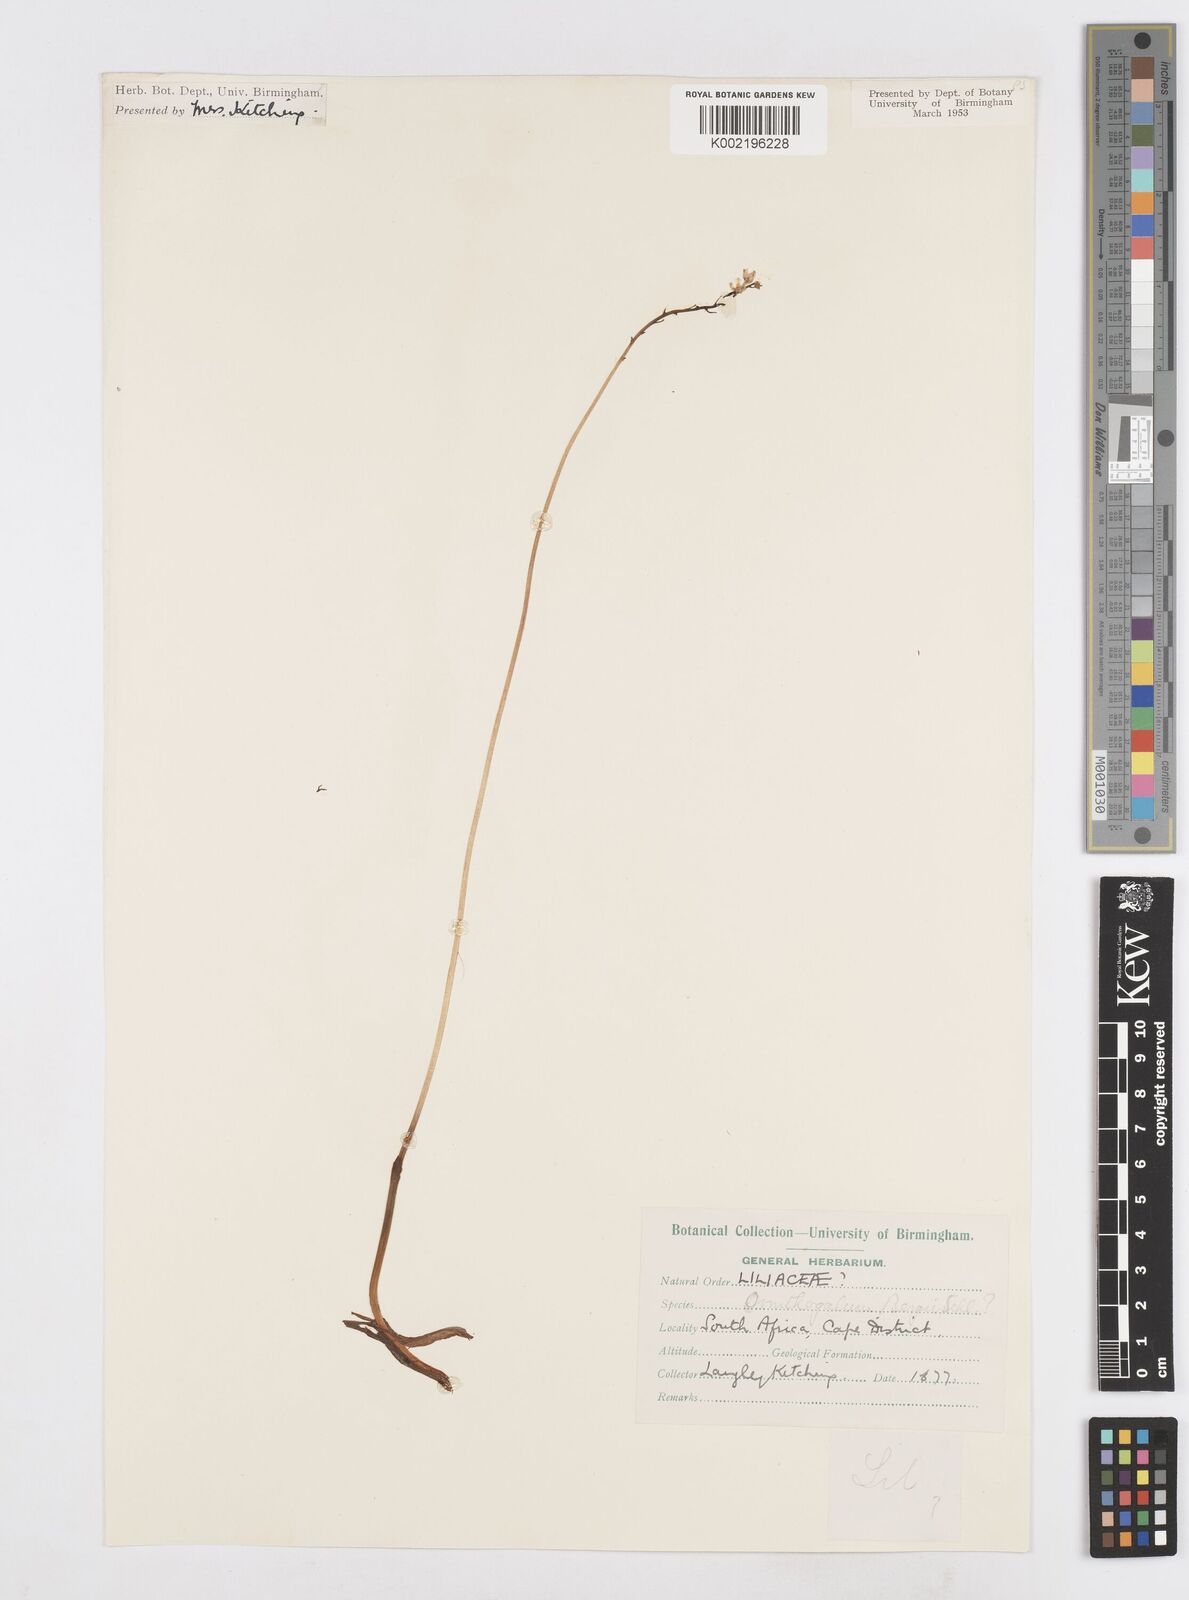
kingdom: Plantae
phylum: Tracheophyta
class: Liliopsida
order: Asparagales
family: Asparagaceae
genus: Ornithogalum
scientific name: Ornithogalum hispidum
